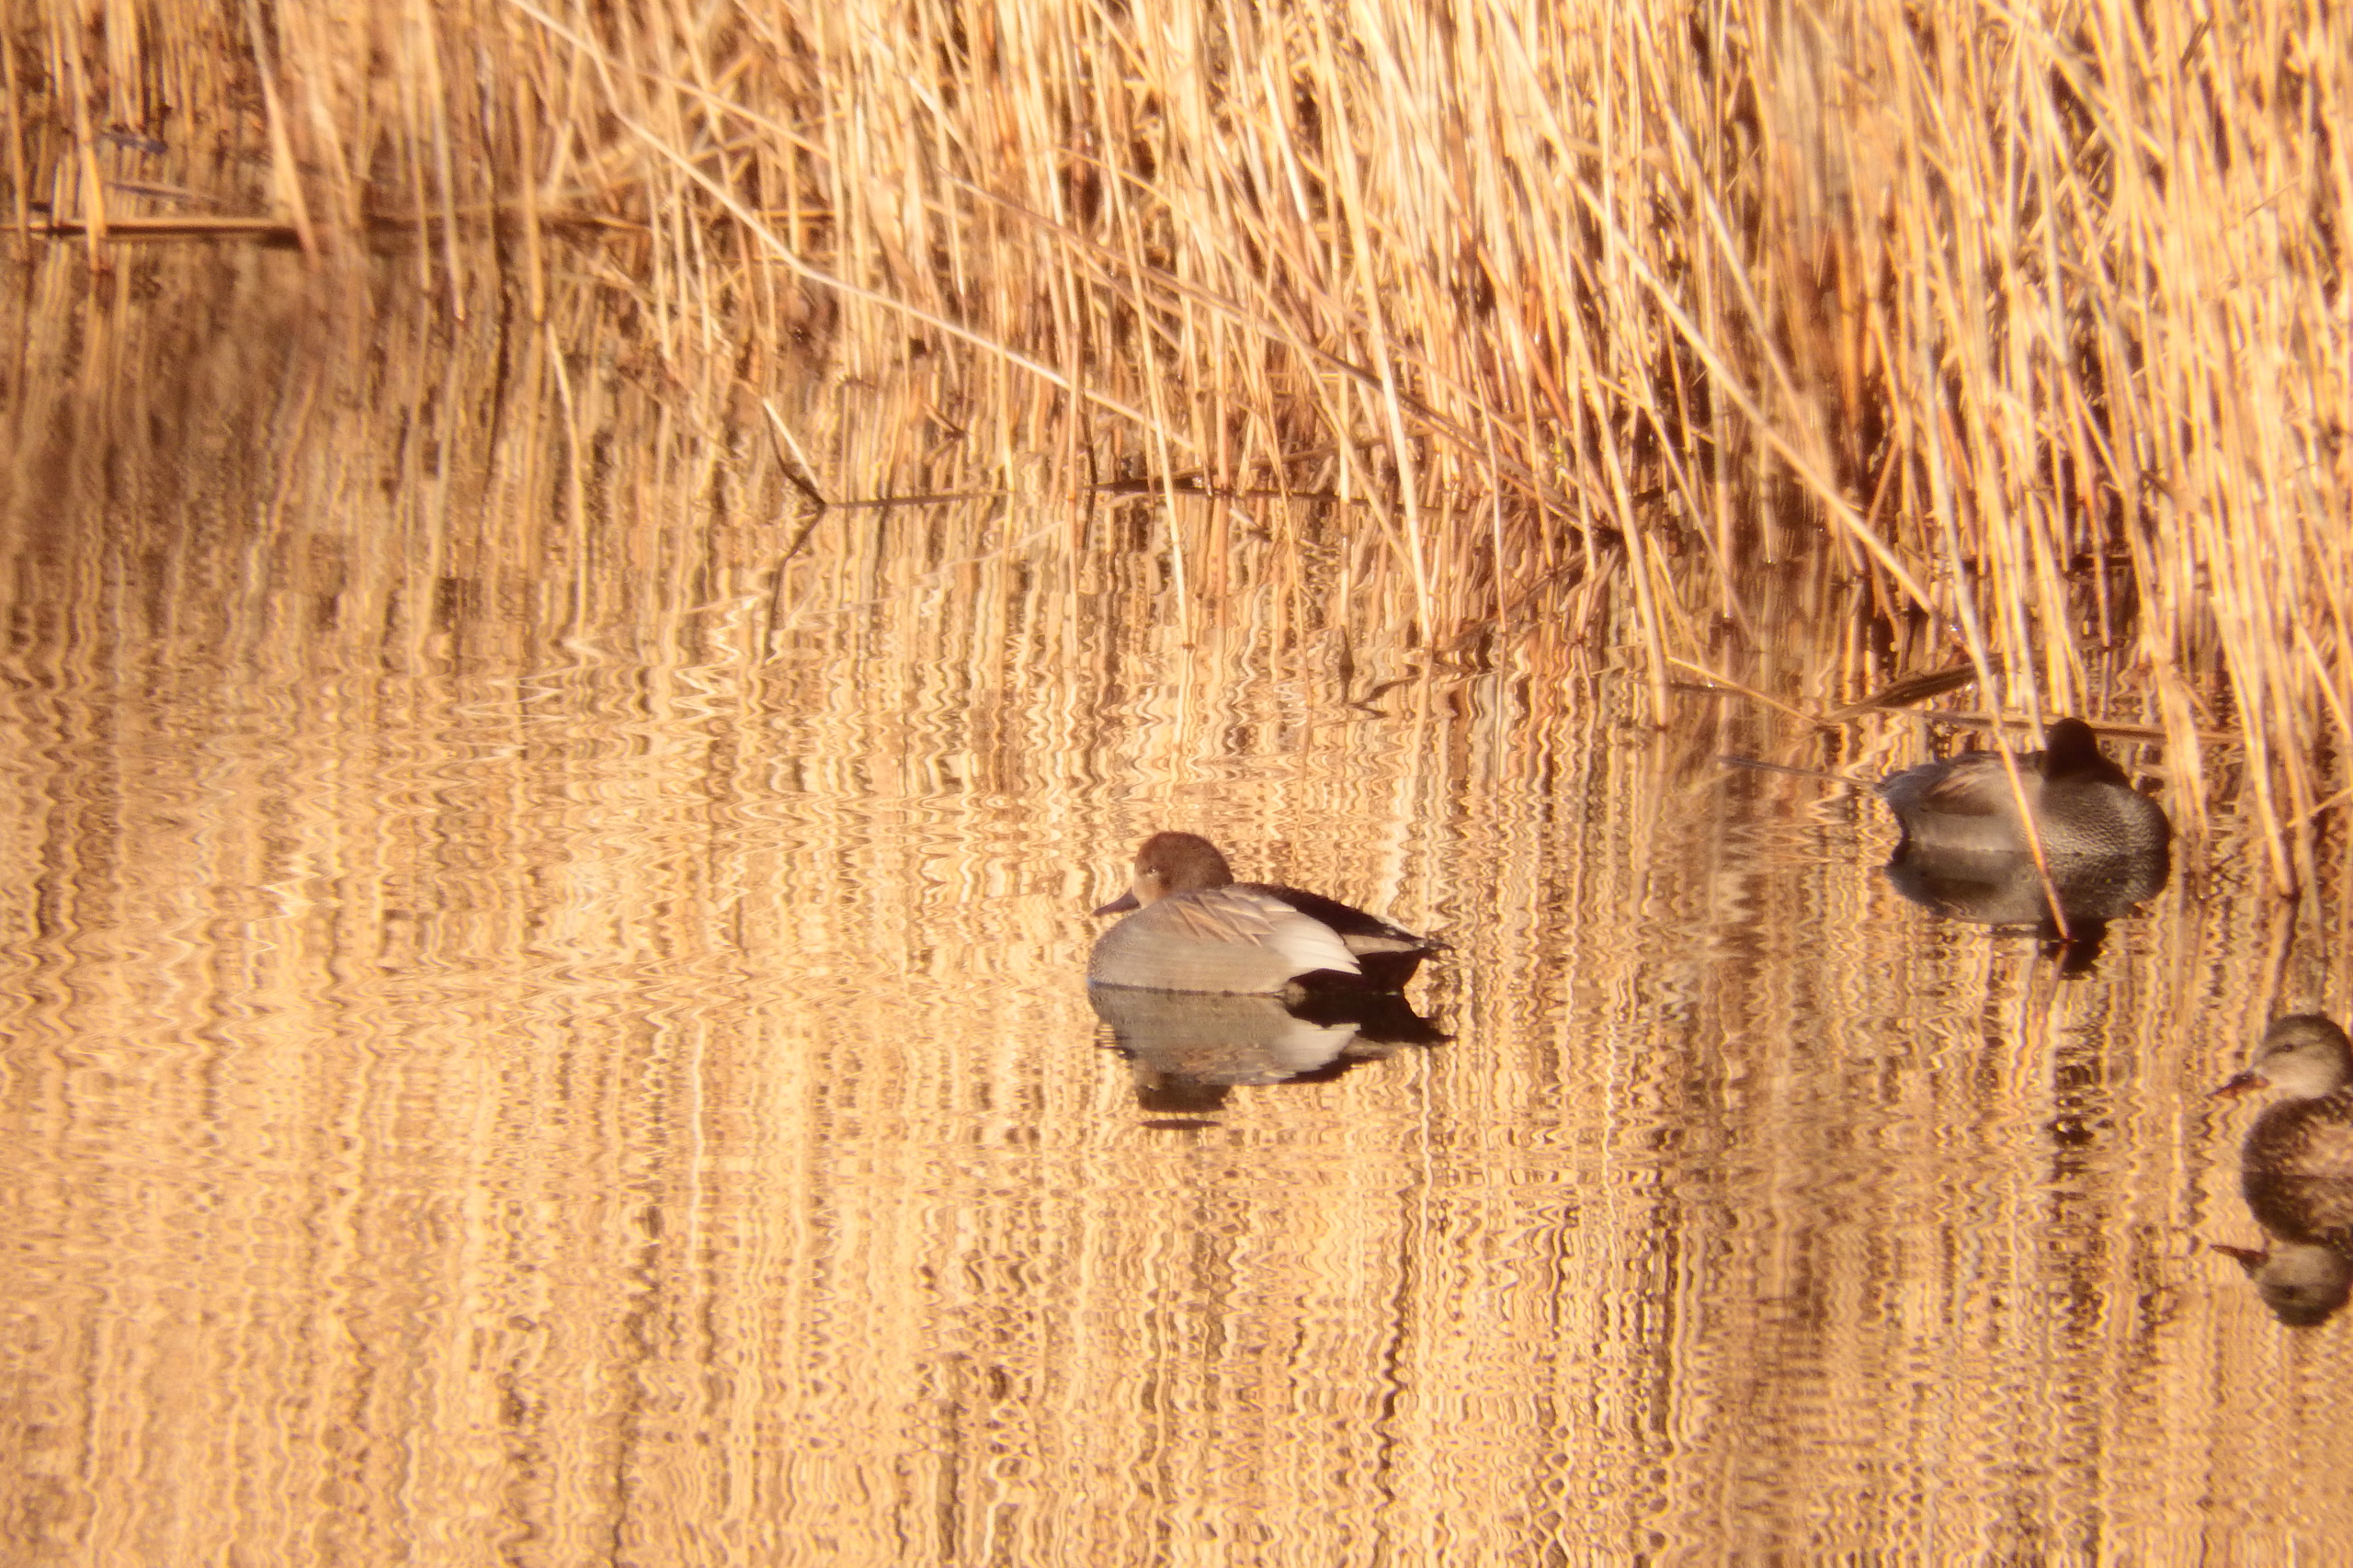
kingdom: Animalia
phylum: Chordata
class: Aves
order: Anseriformes
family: Anatidae
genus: Mareca
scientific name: Mareca strepera
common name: Knarand
